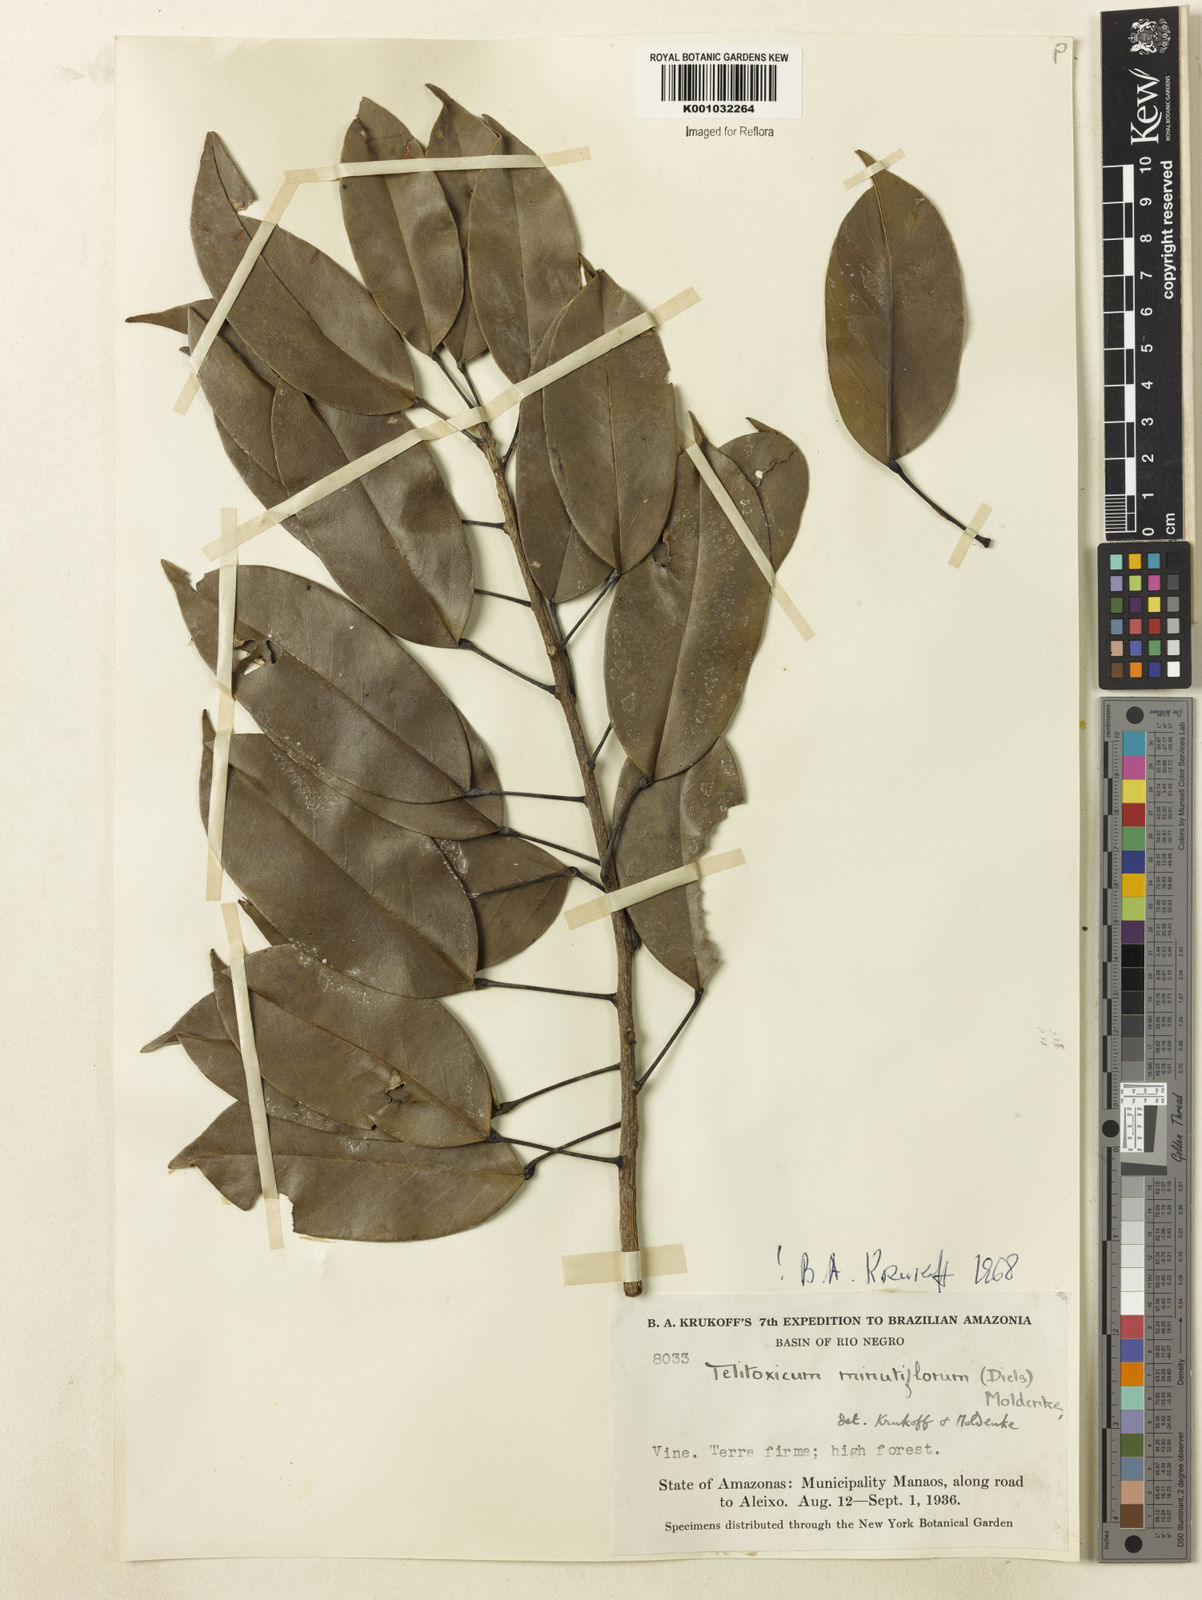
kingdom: Plantae
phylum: Tracheophyta
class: Magnoliopsida
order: Ranunculales
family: Menispermaceae
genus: Telitoxicum
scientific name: Telitoxicum minutiflorum
